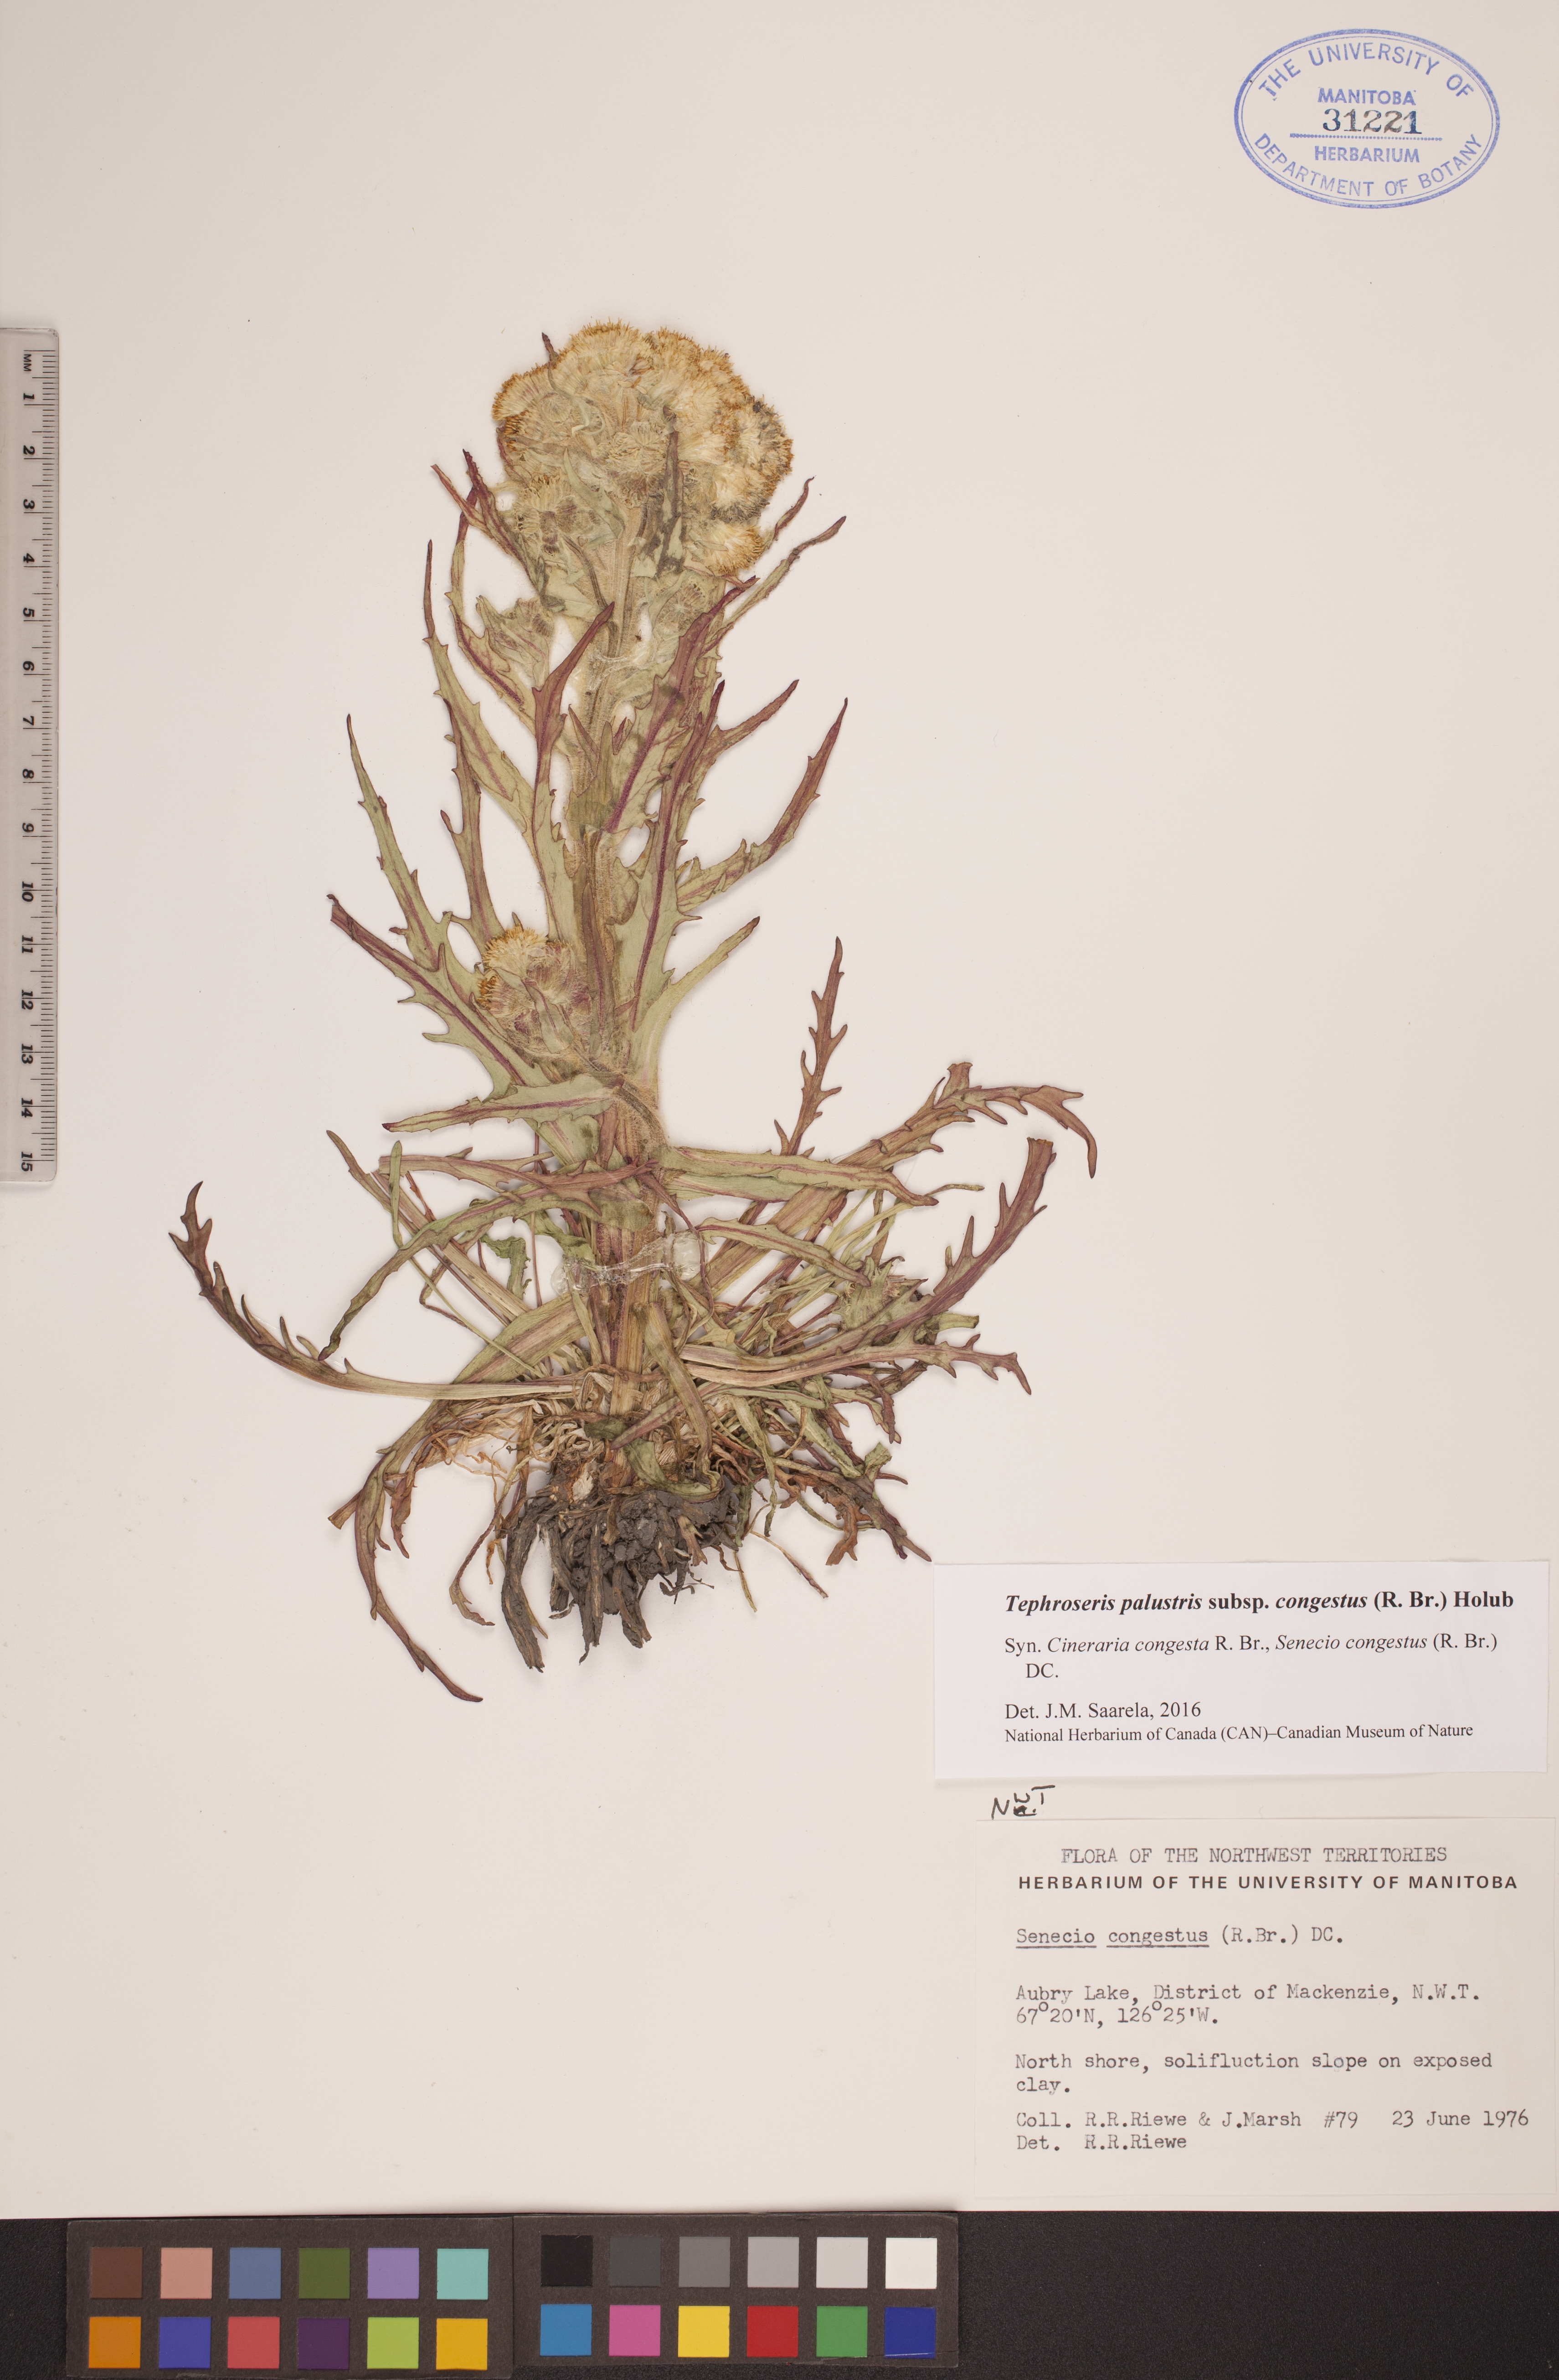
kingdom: Plantae
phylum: Tracheophyta
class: Magnoliopsida
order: Asterales
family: Asteraceae
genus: Tephroseris
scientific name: Tephroseris palustris
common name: Marsh fleawort
